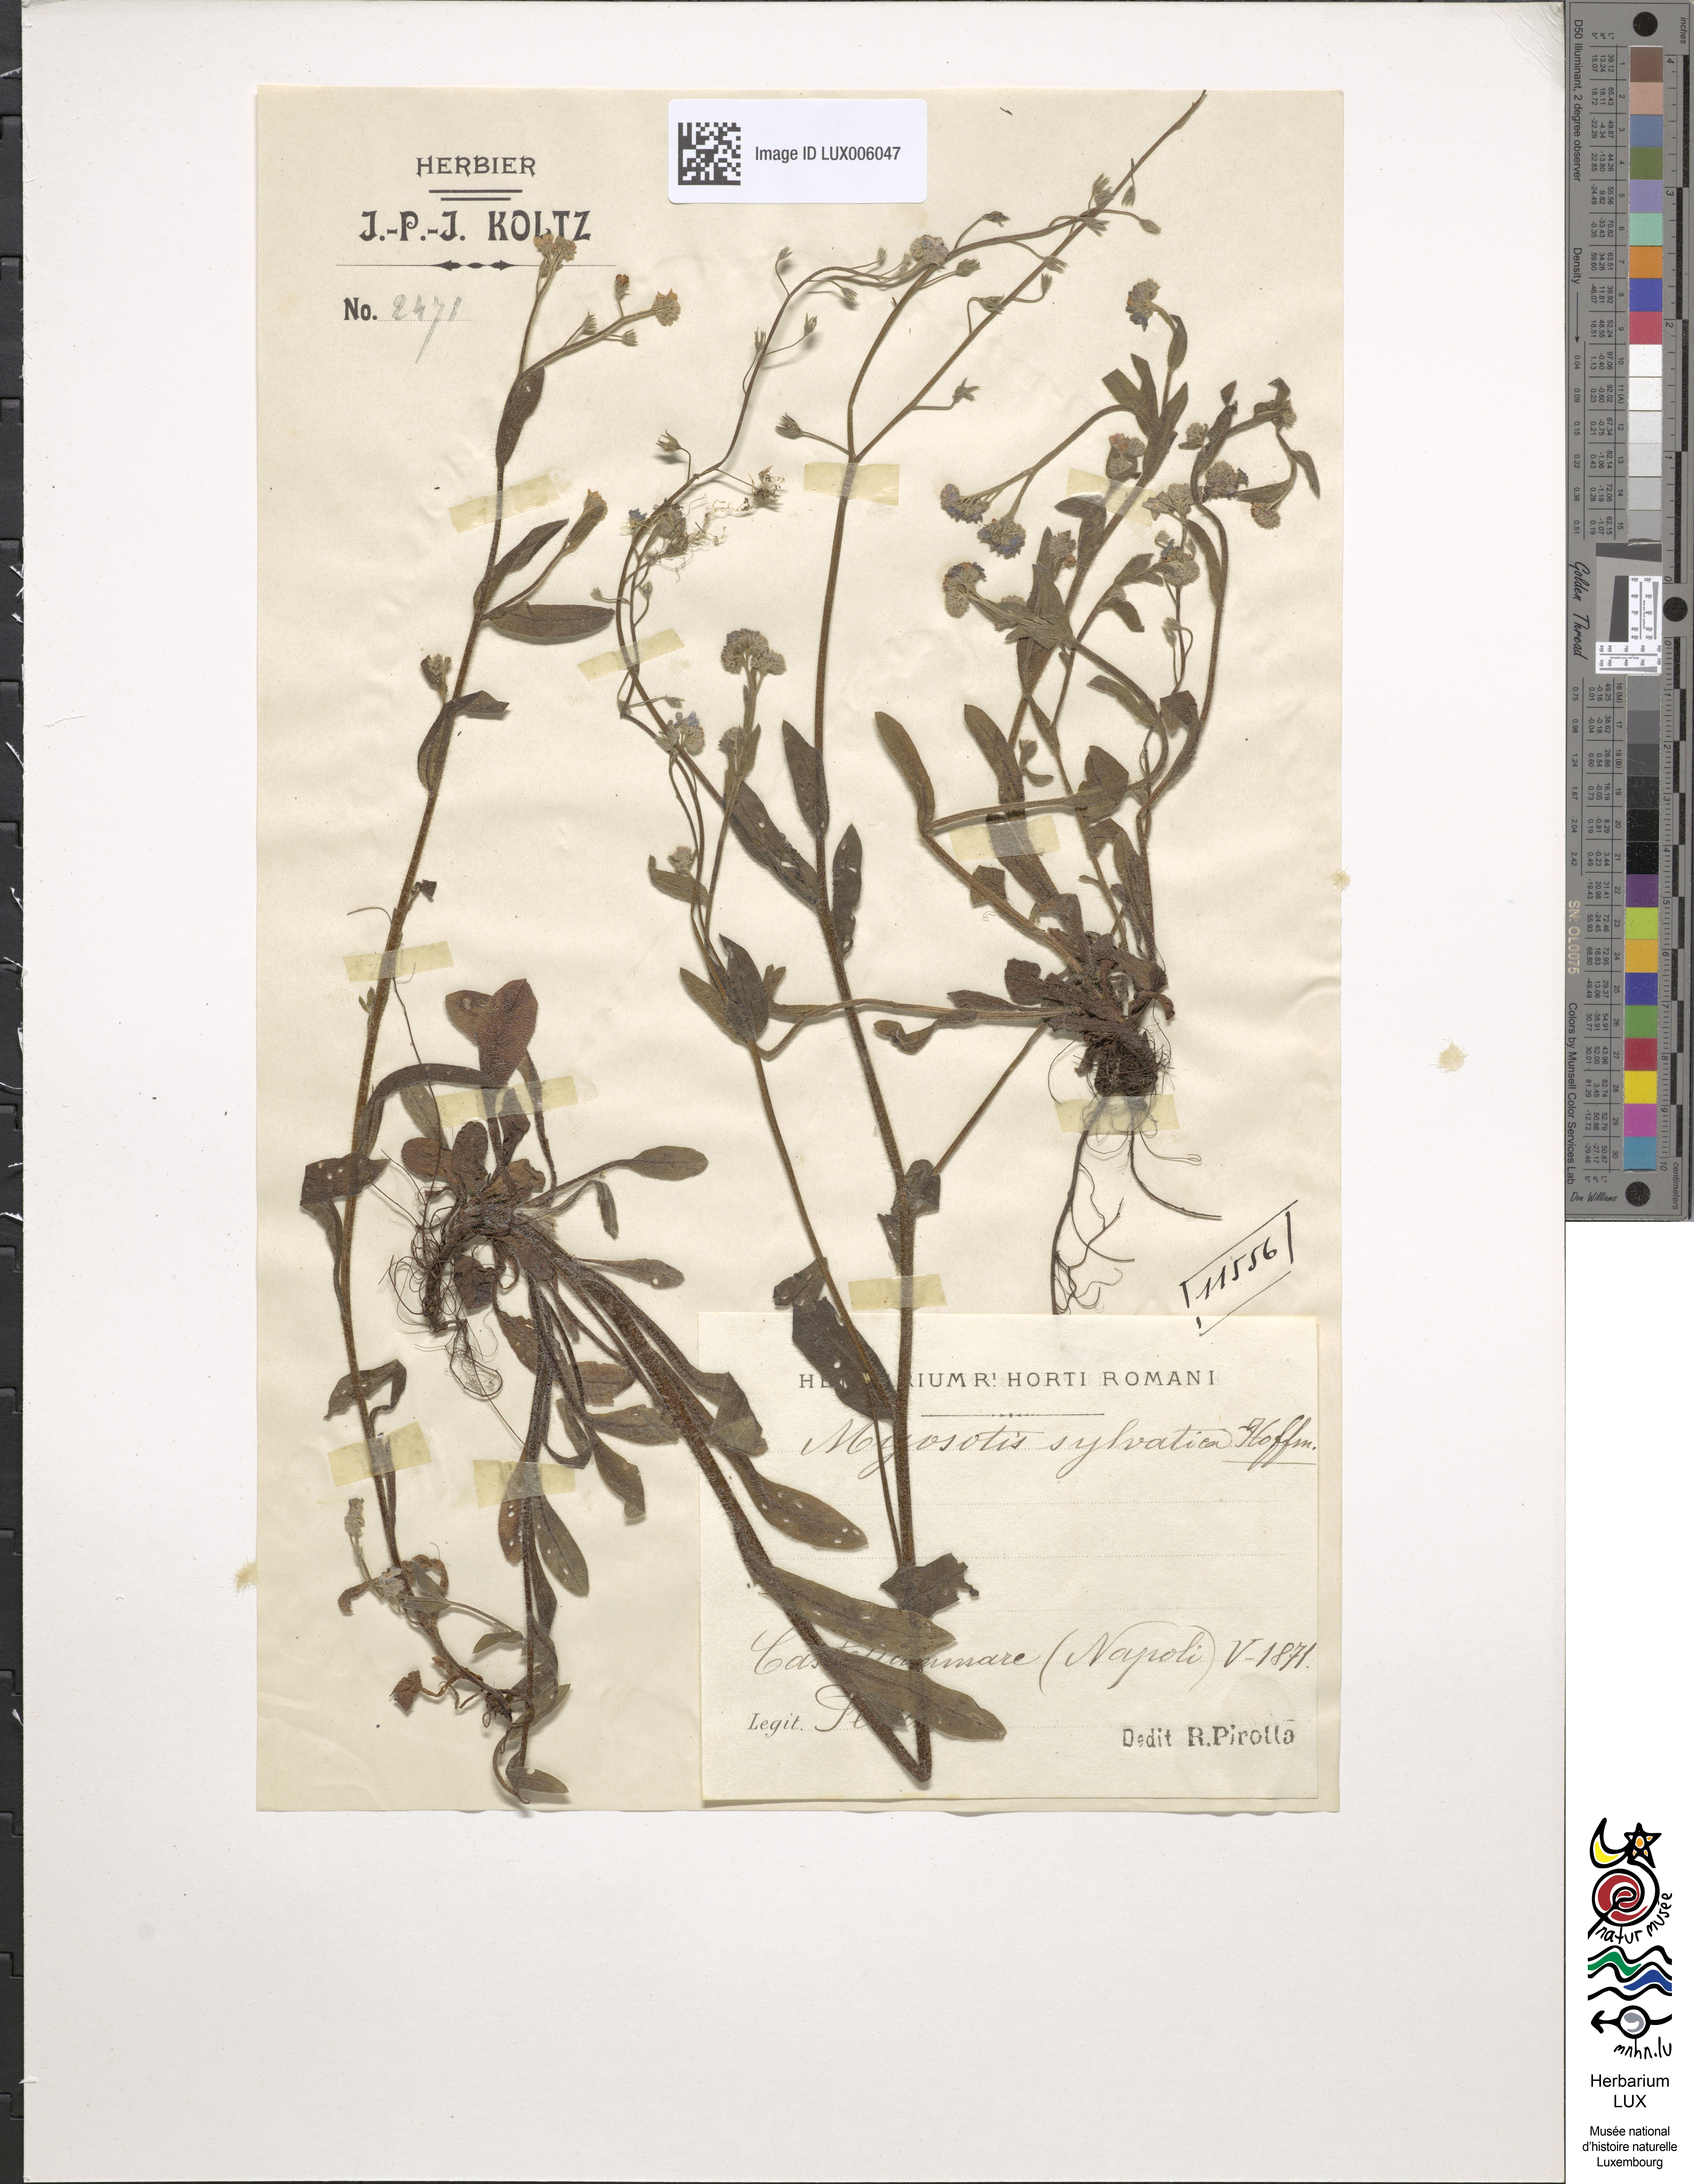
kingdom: Plantae
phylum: Tracheophyta
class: Magnoliopsida
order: Boraginales
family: Boraginaceae
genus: Myosotis
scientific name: Myosotis sylvatica
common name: Wood forget-me-not
